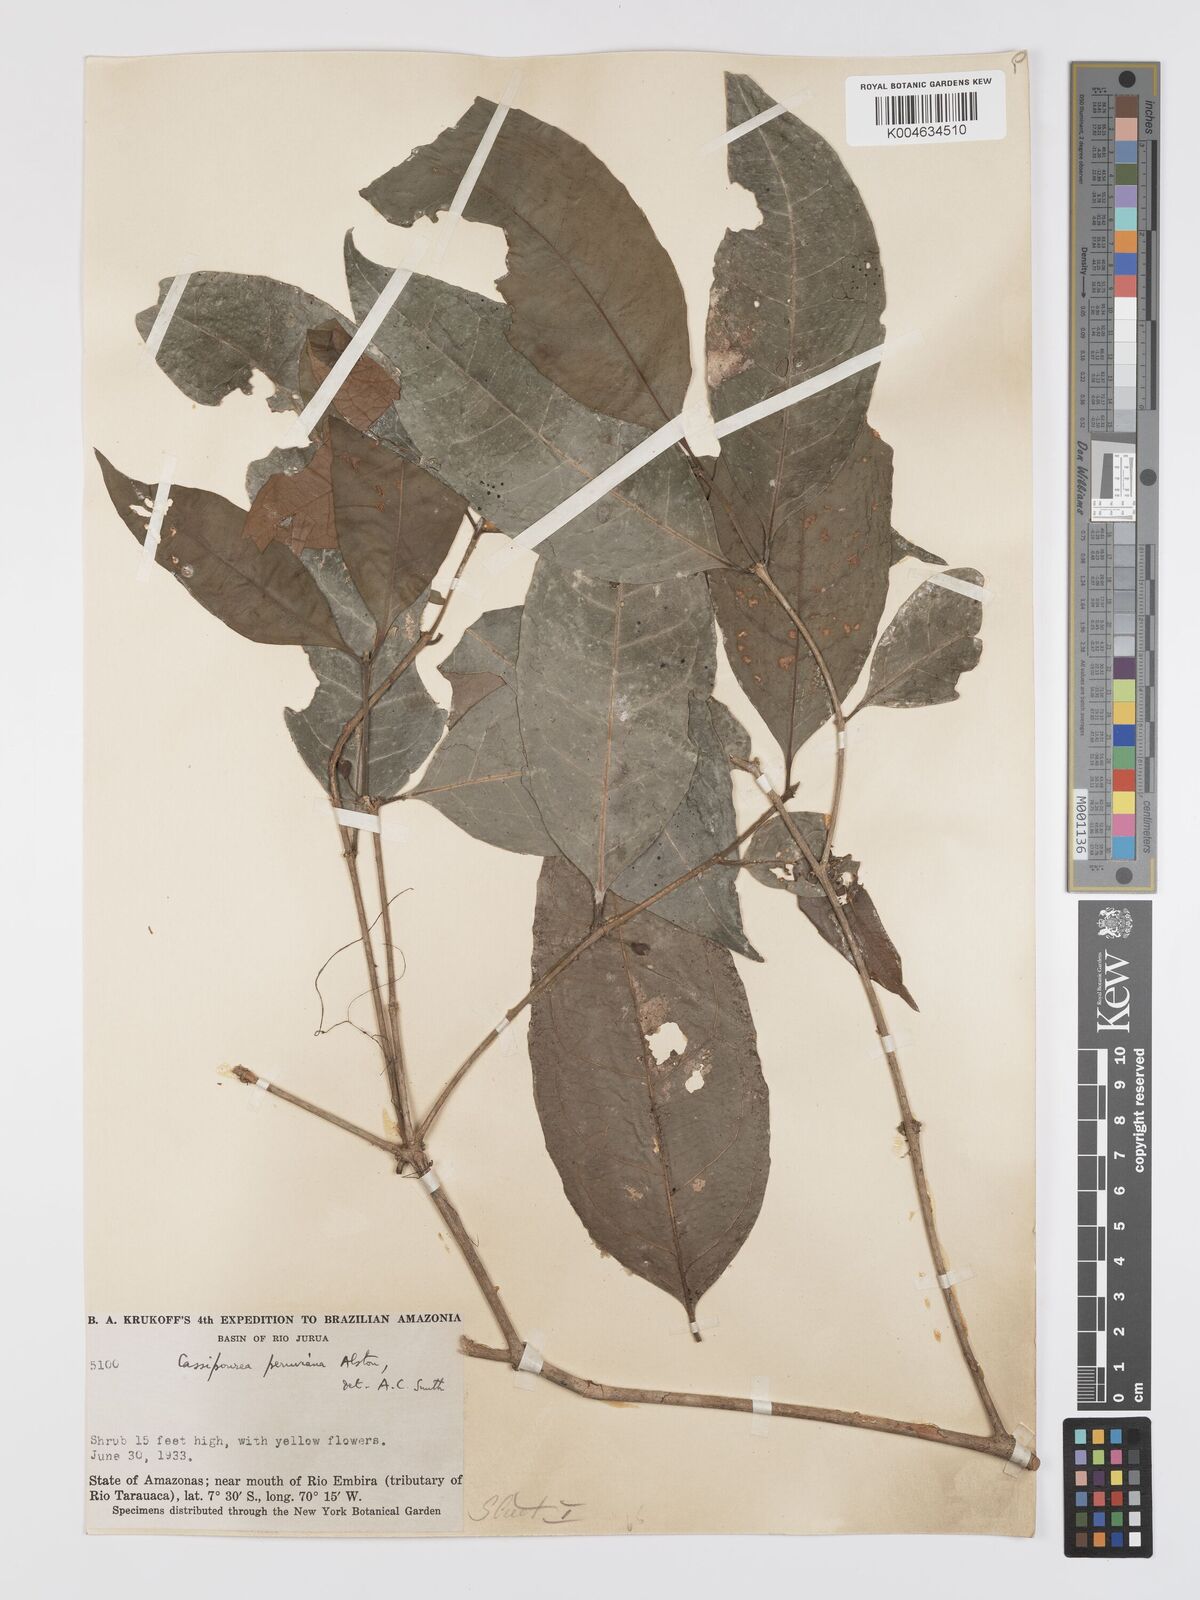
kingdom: Plantae
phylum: Tracheophyta
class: Magnoliopsida
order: Malpighiales
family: Rhizophoraceae
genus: Cassipourea
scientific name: Cassipourea peruviana
